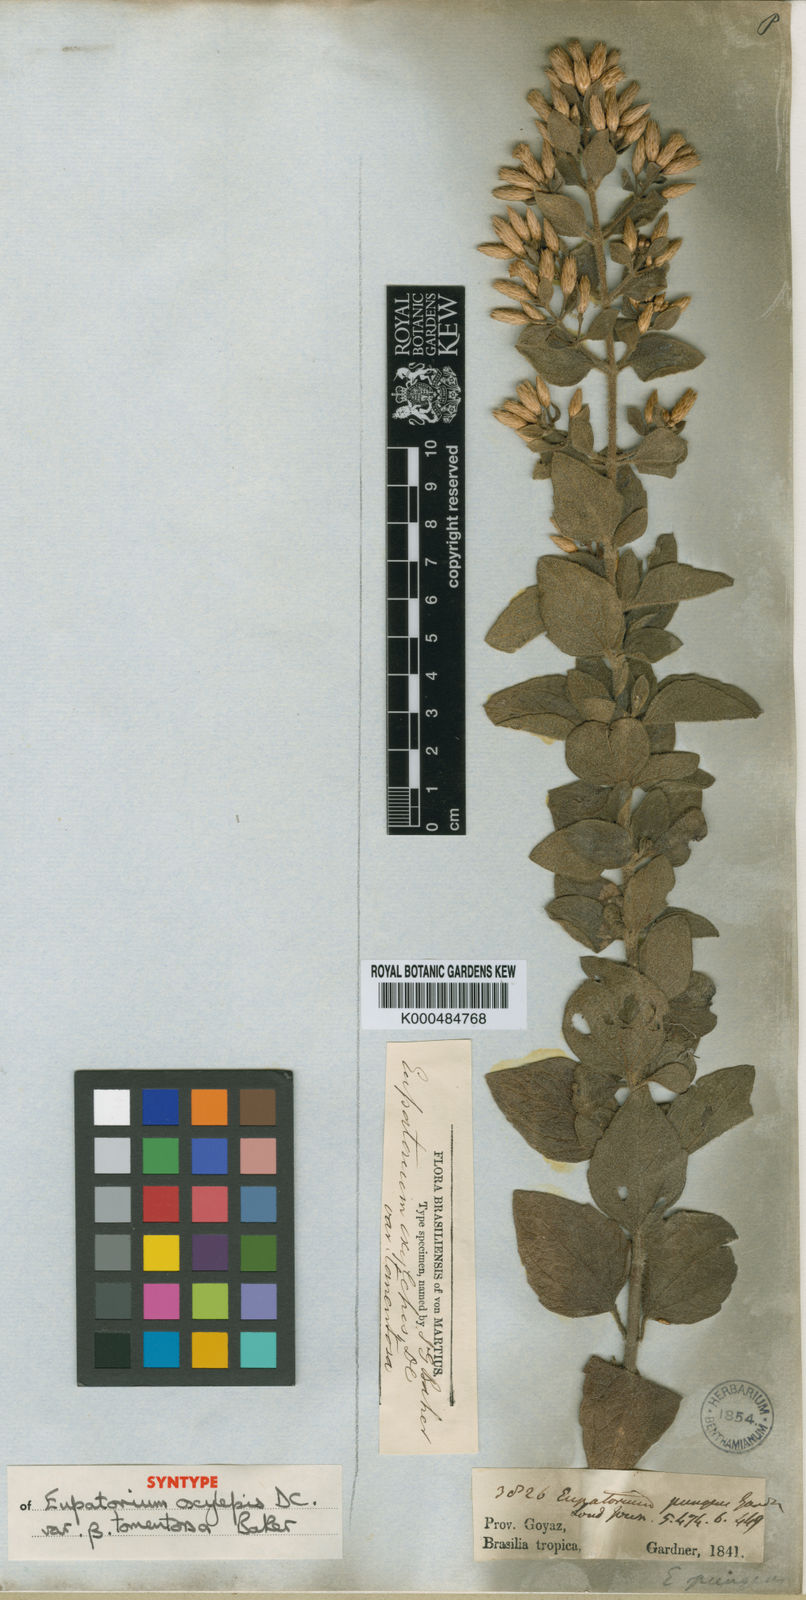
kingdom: Plantae
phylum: Tracheophyta
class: Magnoliopsida
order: Asterales
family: Asteraceae
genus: Chromolaena
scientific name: Chromolaena oxylepis
